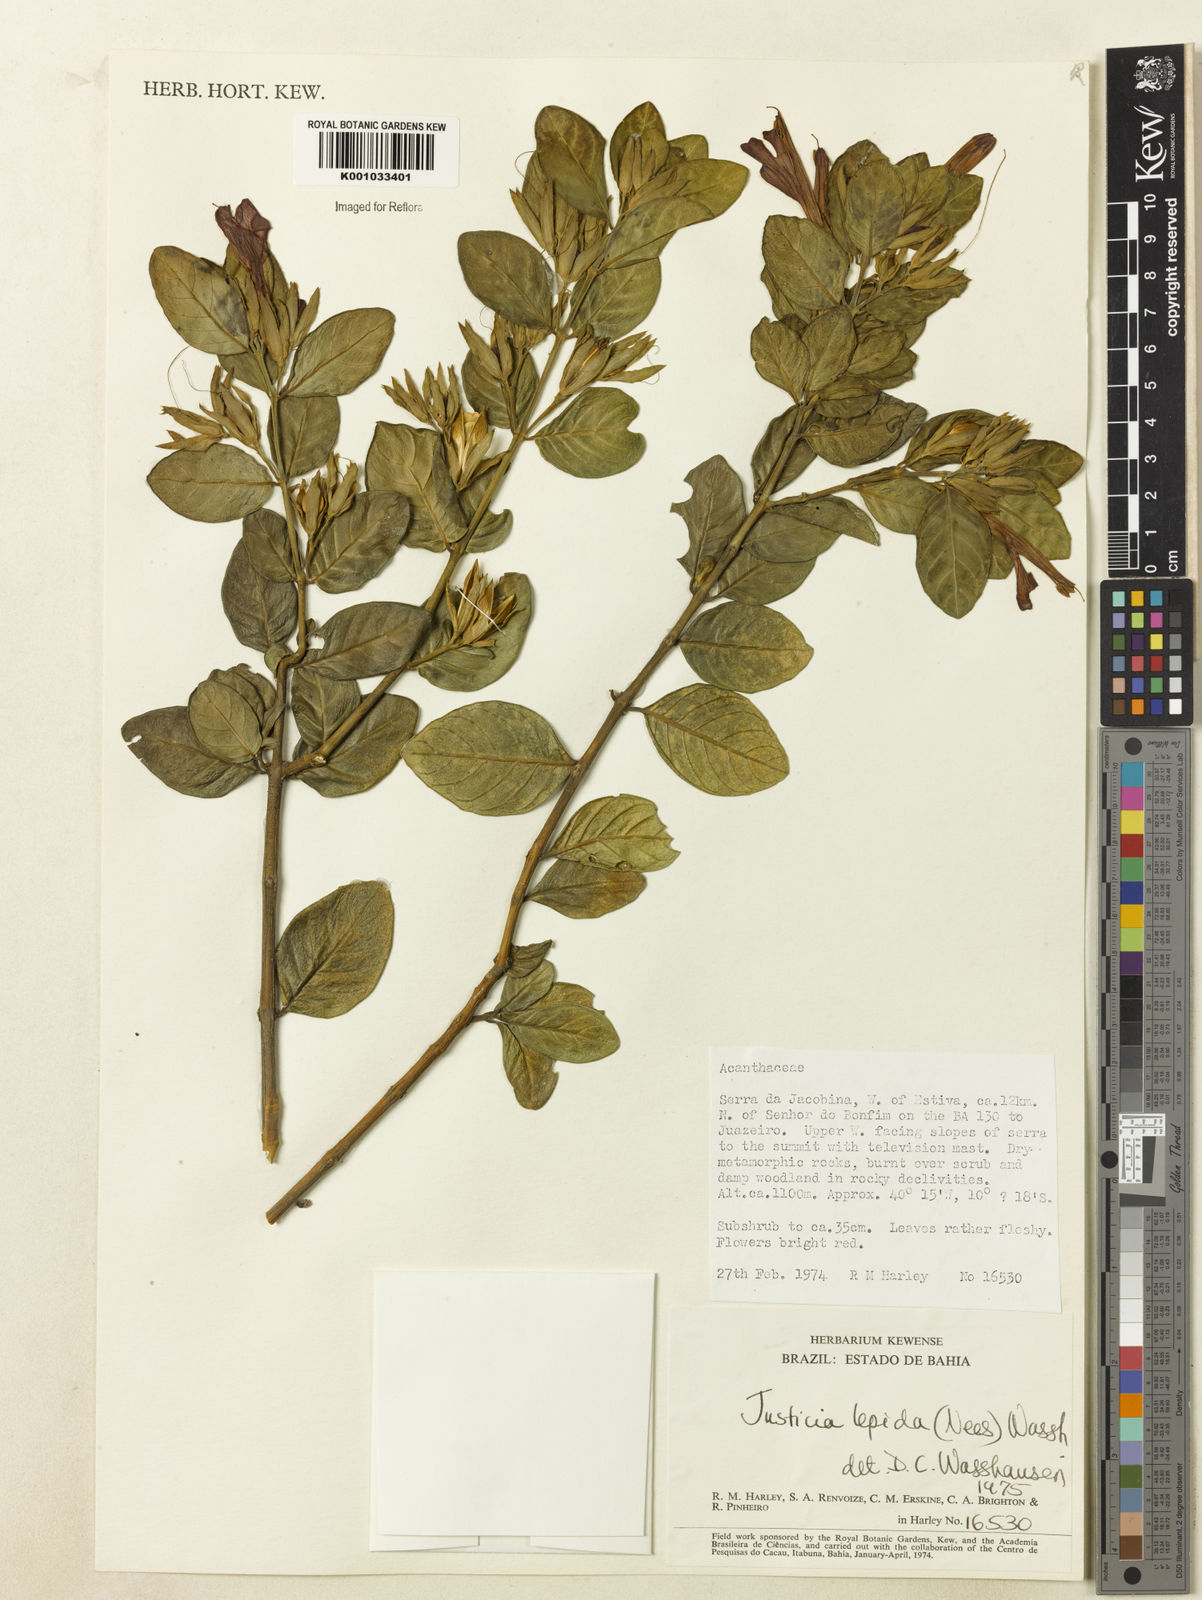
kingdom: Plantae
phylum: Tracheophyta
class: Magnoliopsida
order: Lamiales
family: Acanthaceae
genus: Justicia
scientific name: Justicia lepida
